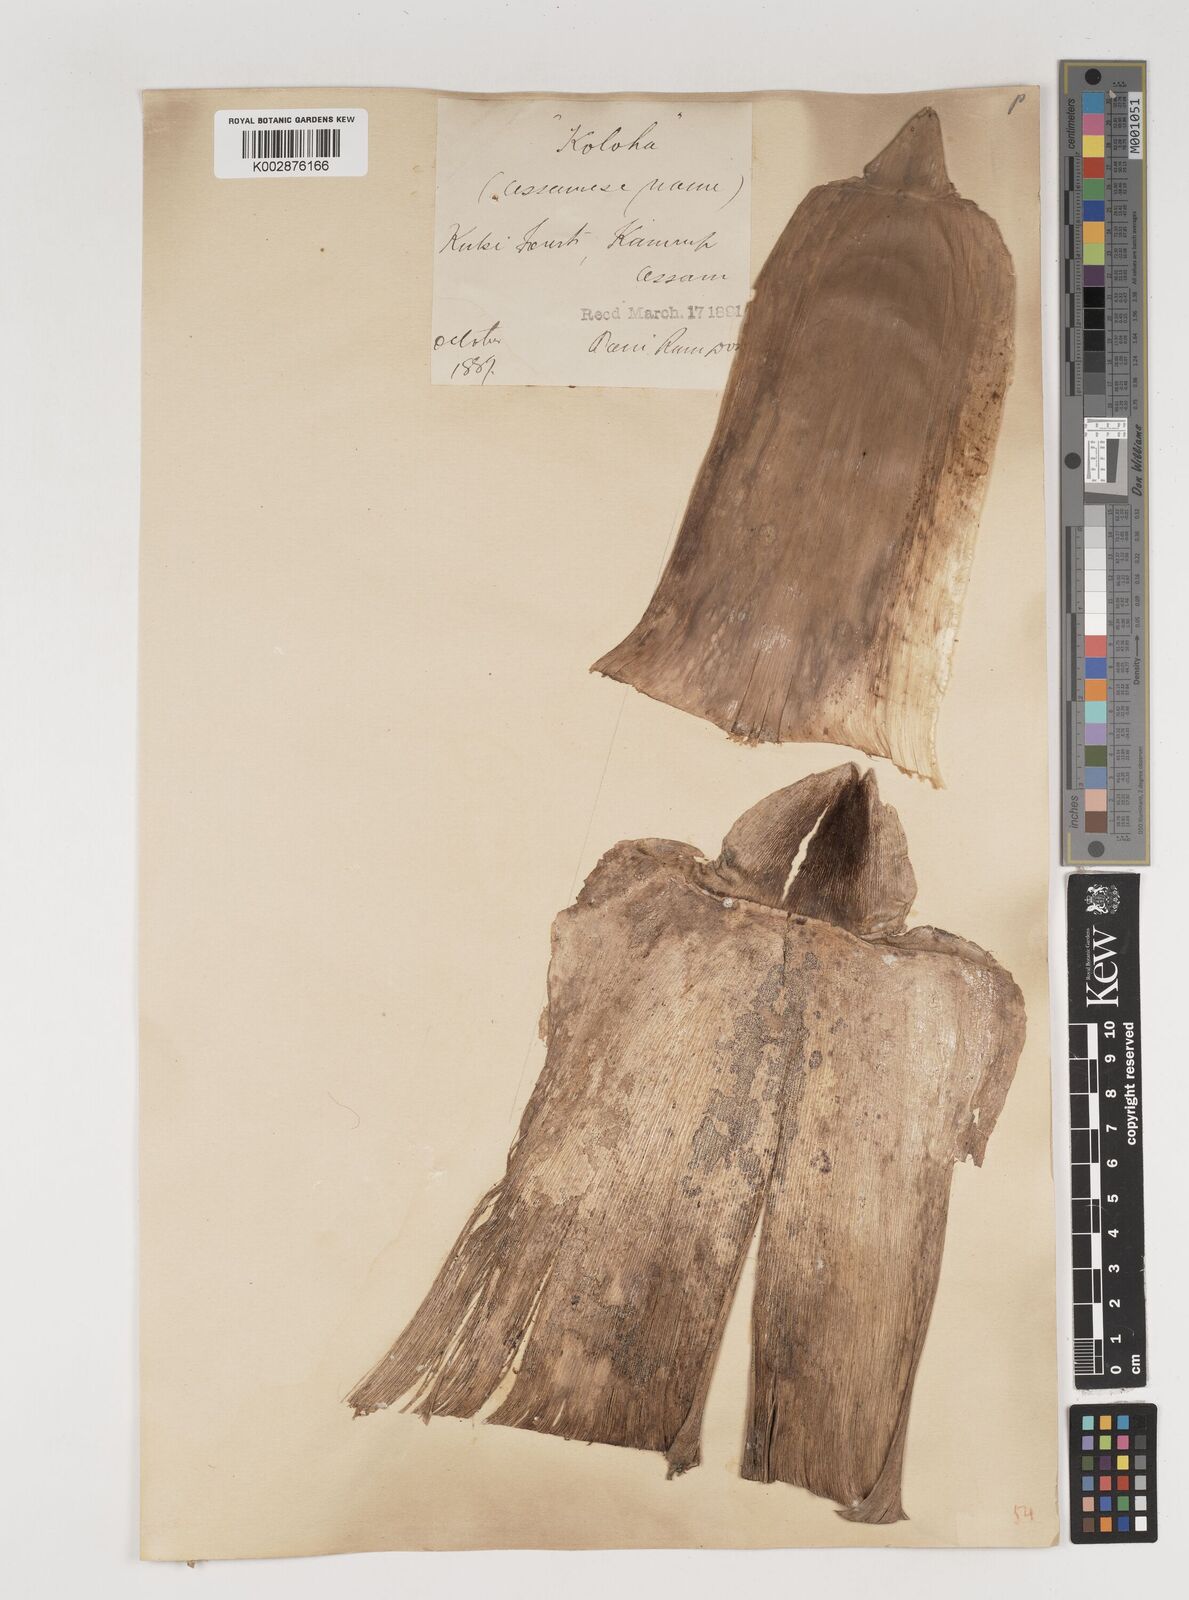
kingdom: Plantae
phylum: Tracheophyta
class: Liliopsida
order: Poales
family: Poaceae
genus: Bambusa
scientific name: Bambusa bambos
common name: Indian thorny bamboo
